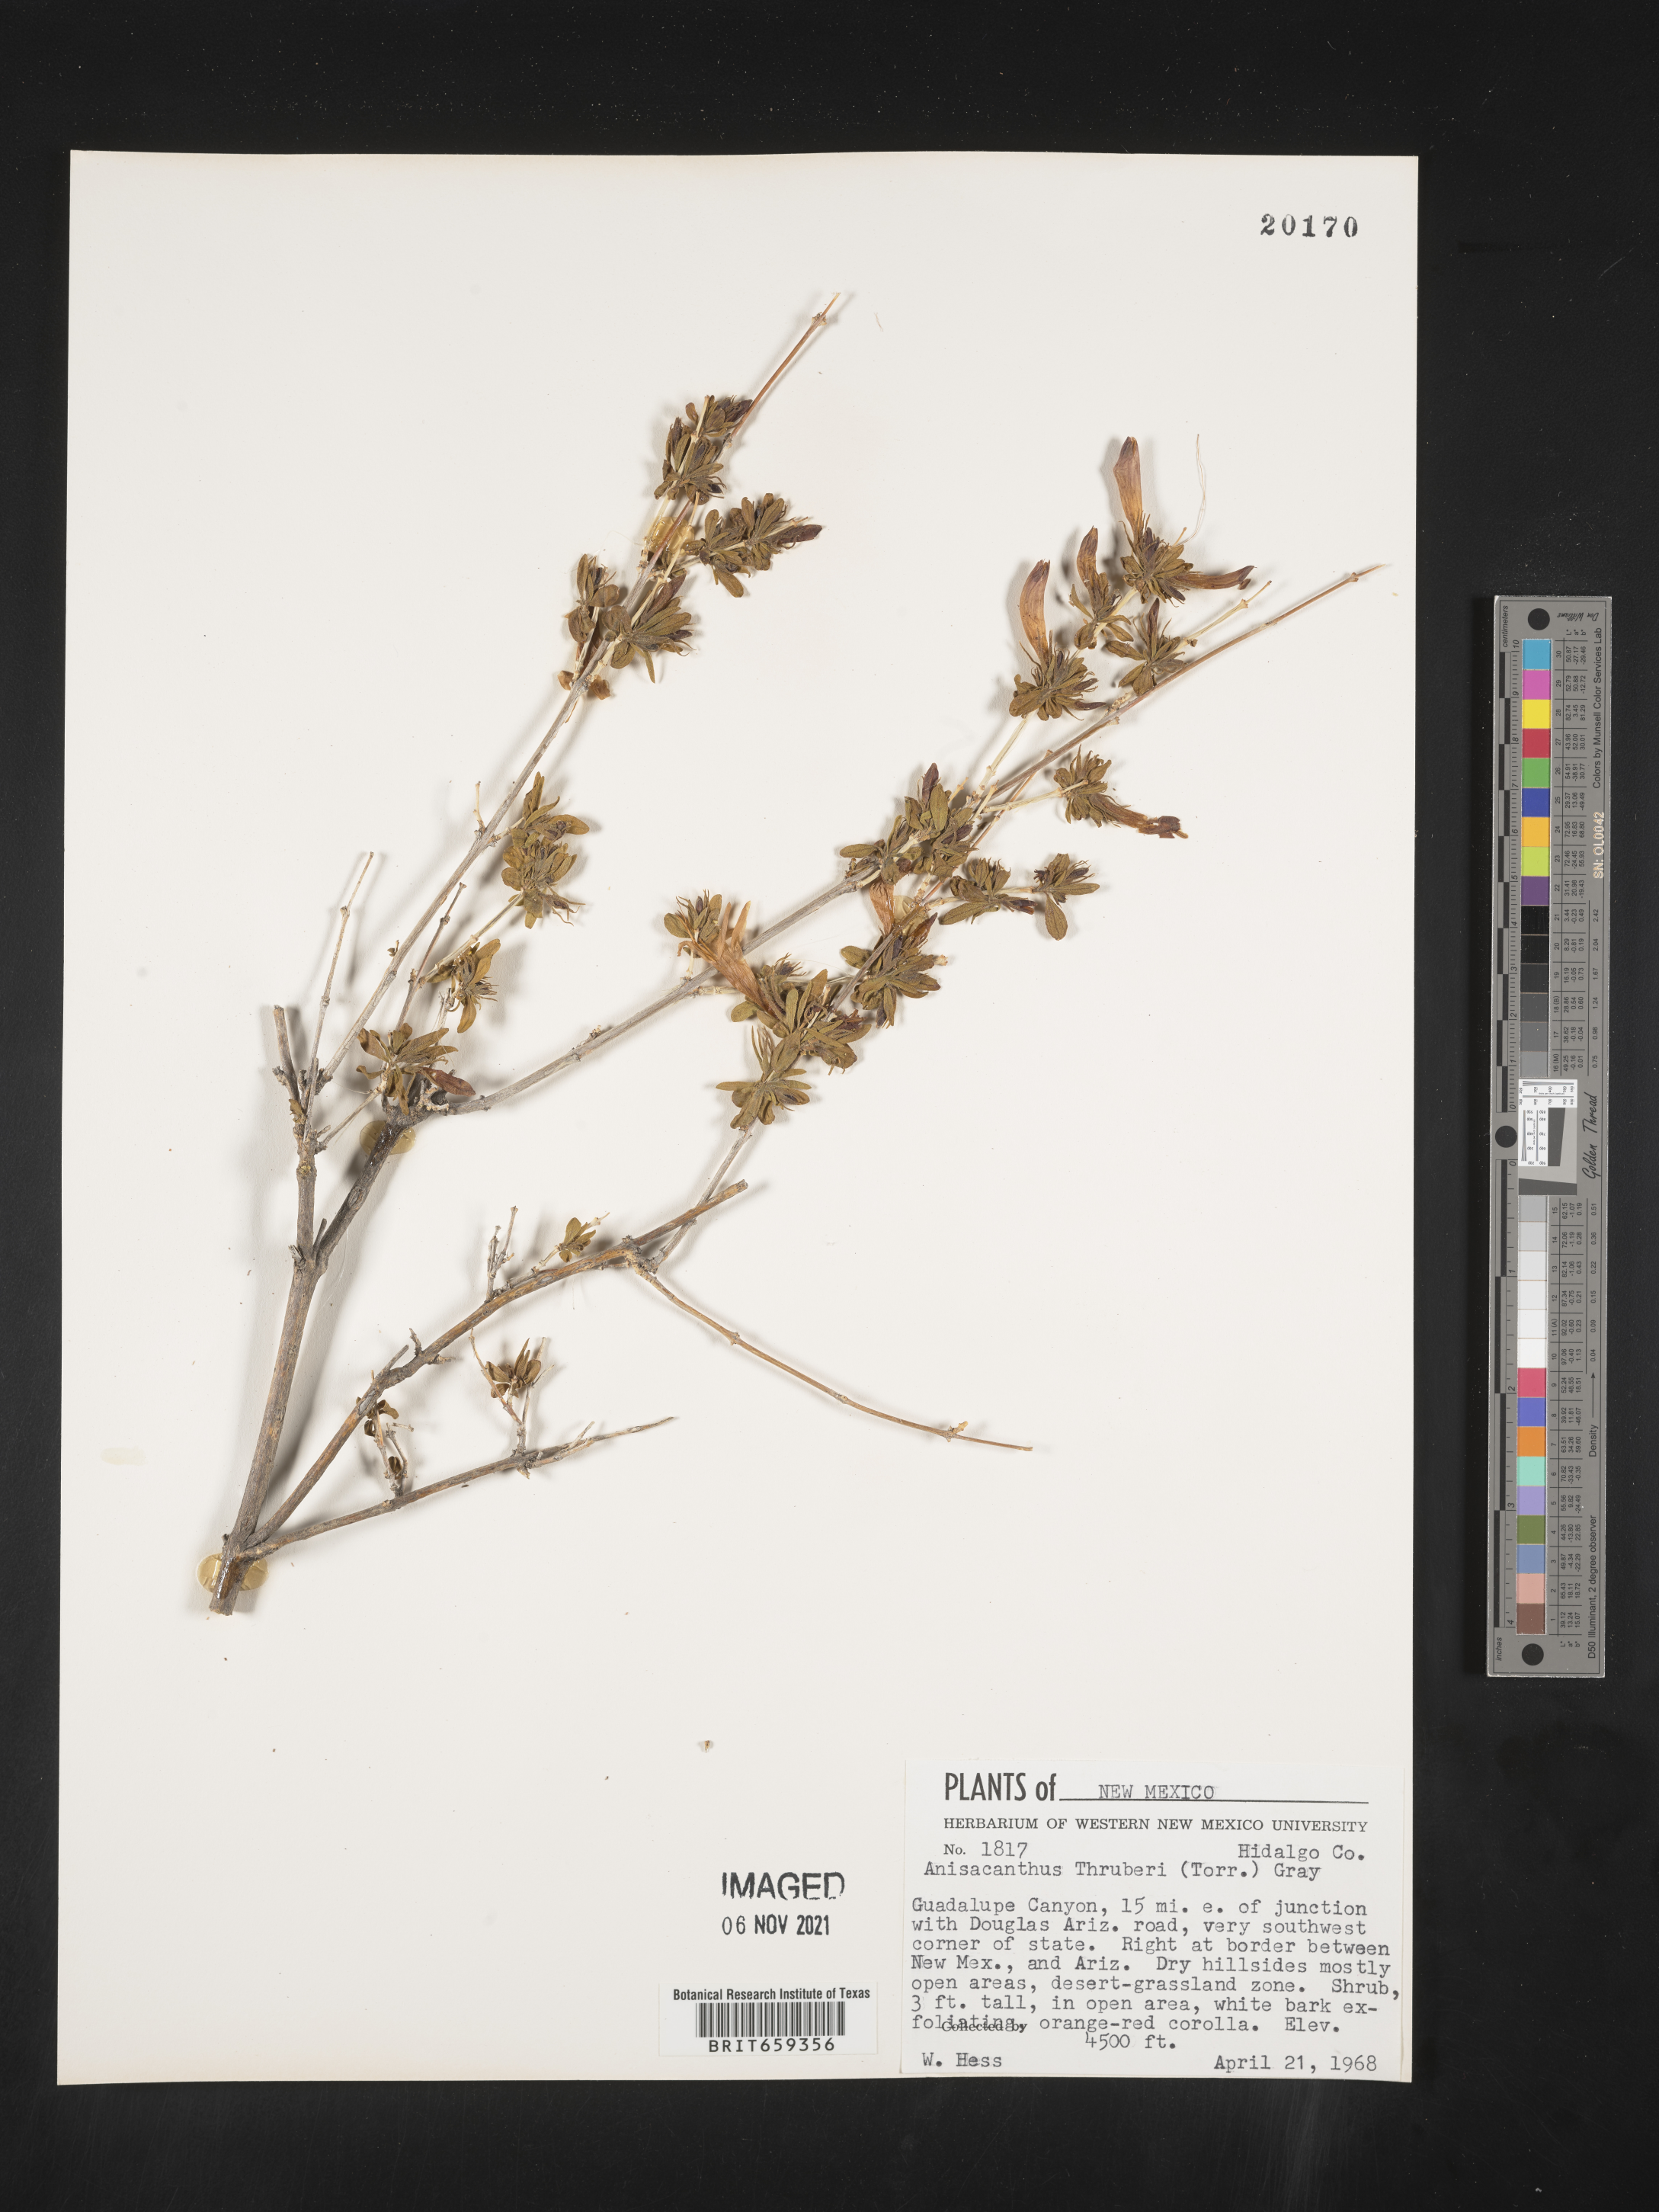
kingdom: Plantae
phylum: Tracheophyta
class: Magnoliopsida
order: Lamiales
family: Acanthaceae
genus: Anisacanthus
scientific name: Anisacanthus
